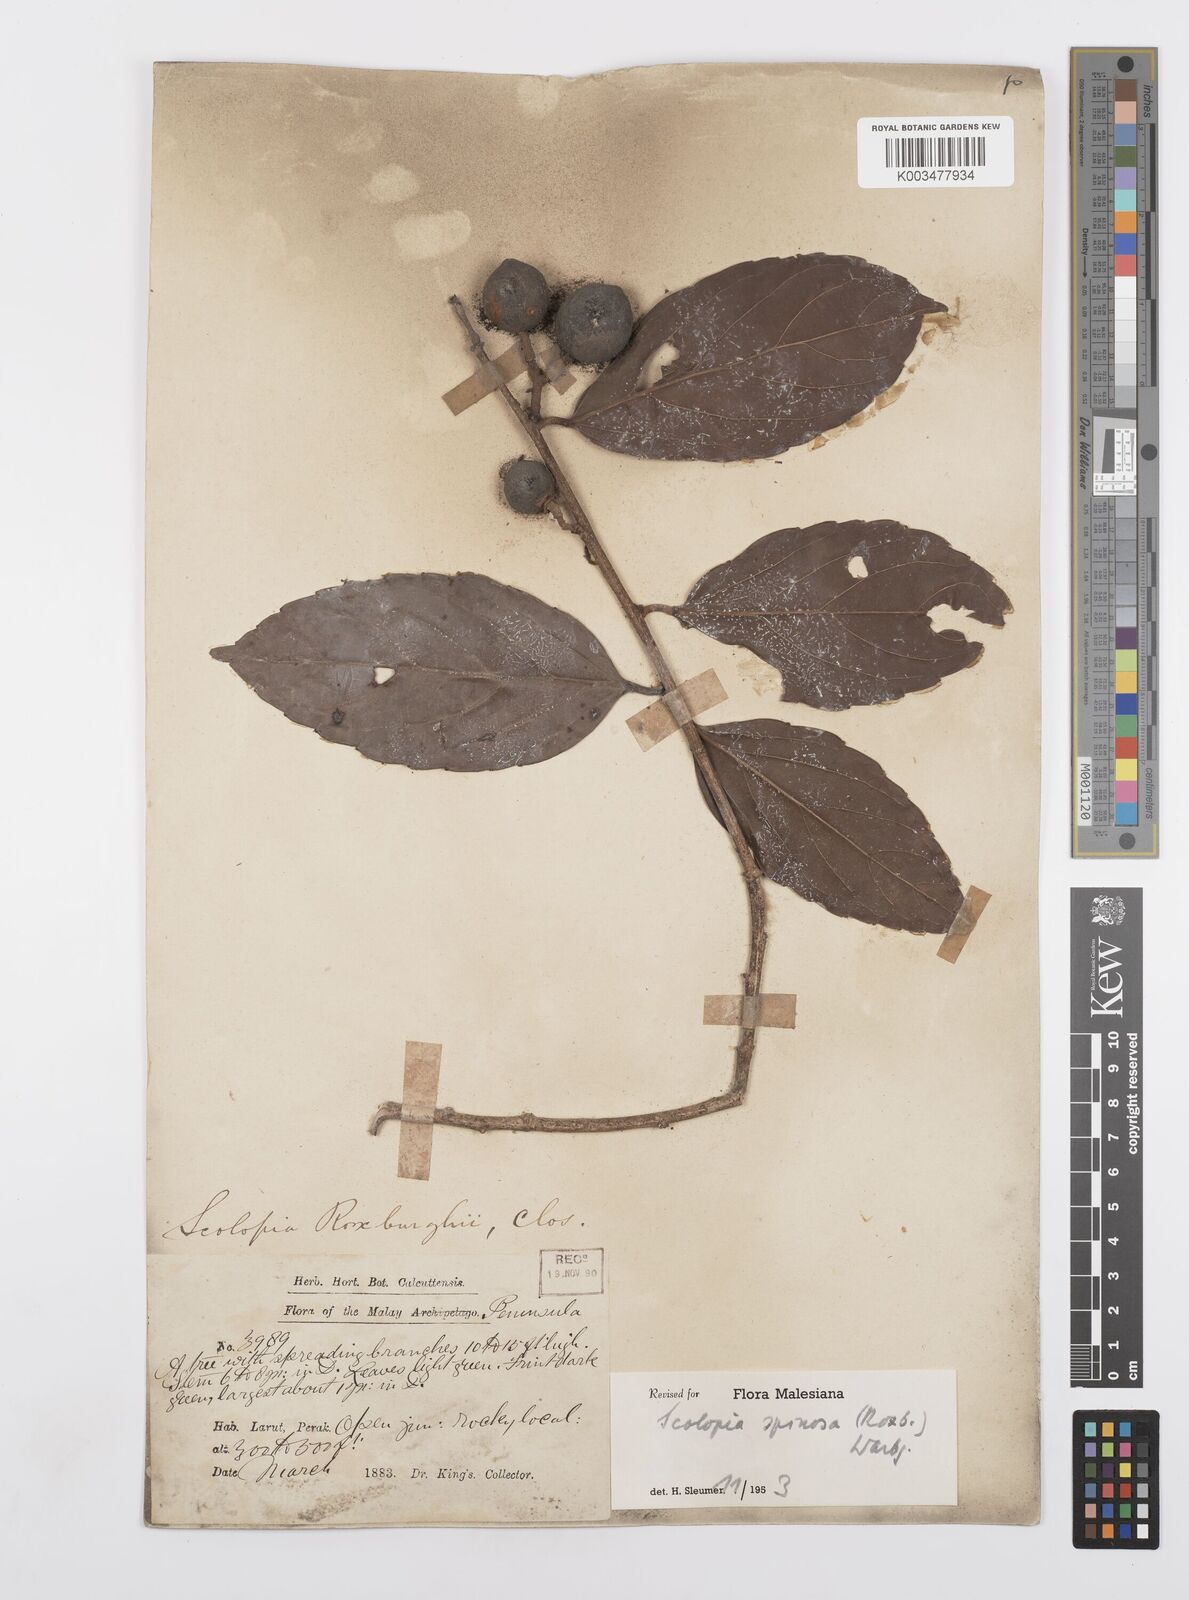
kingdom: Plantae
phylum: Tracheophyta
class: Magnoliopsida
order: Malpighiales
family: Salicaceae
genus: Scolopia
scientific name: Scolopia spinosa
